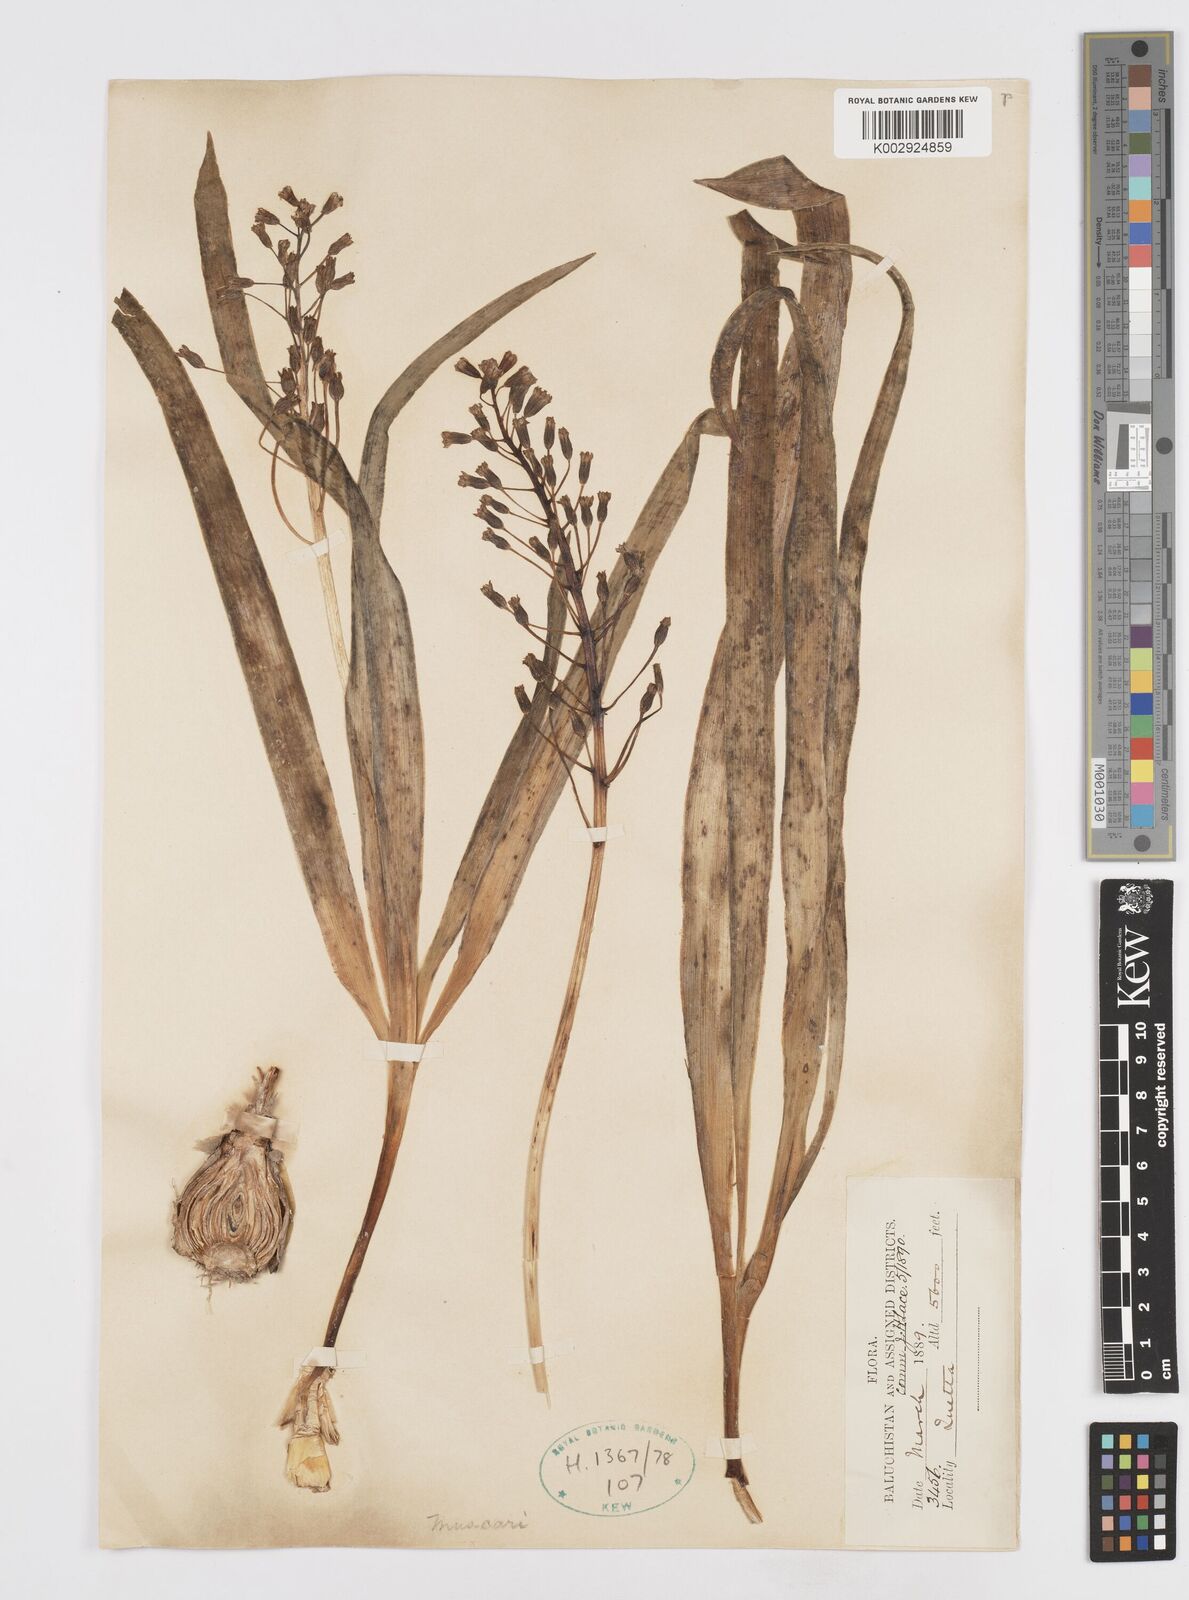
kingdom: Plantae
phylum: Tracheophyta
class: Liliopsida
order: Asparagales
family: Asparagaceae
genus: Bellevalia
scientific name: Bellevalia
